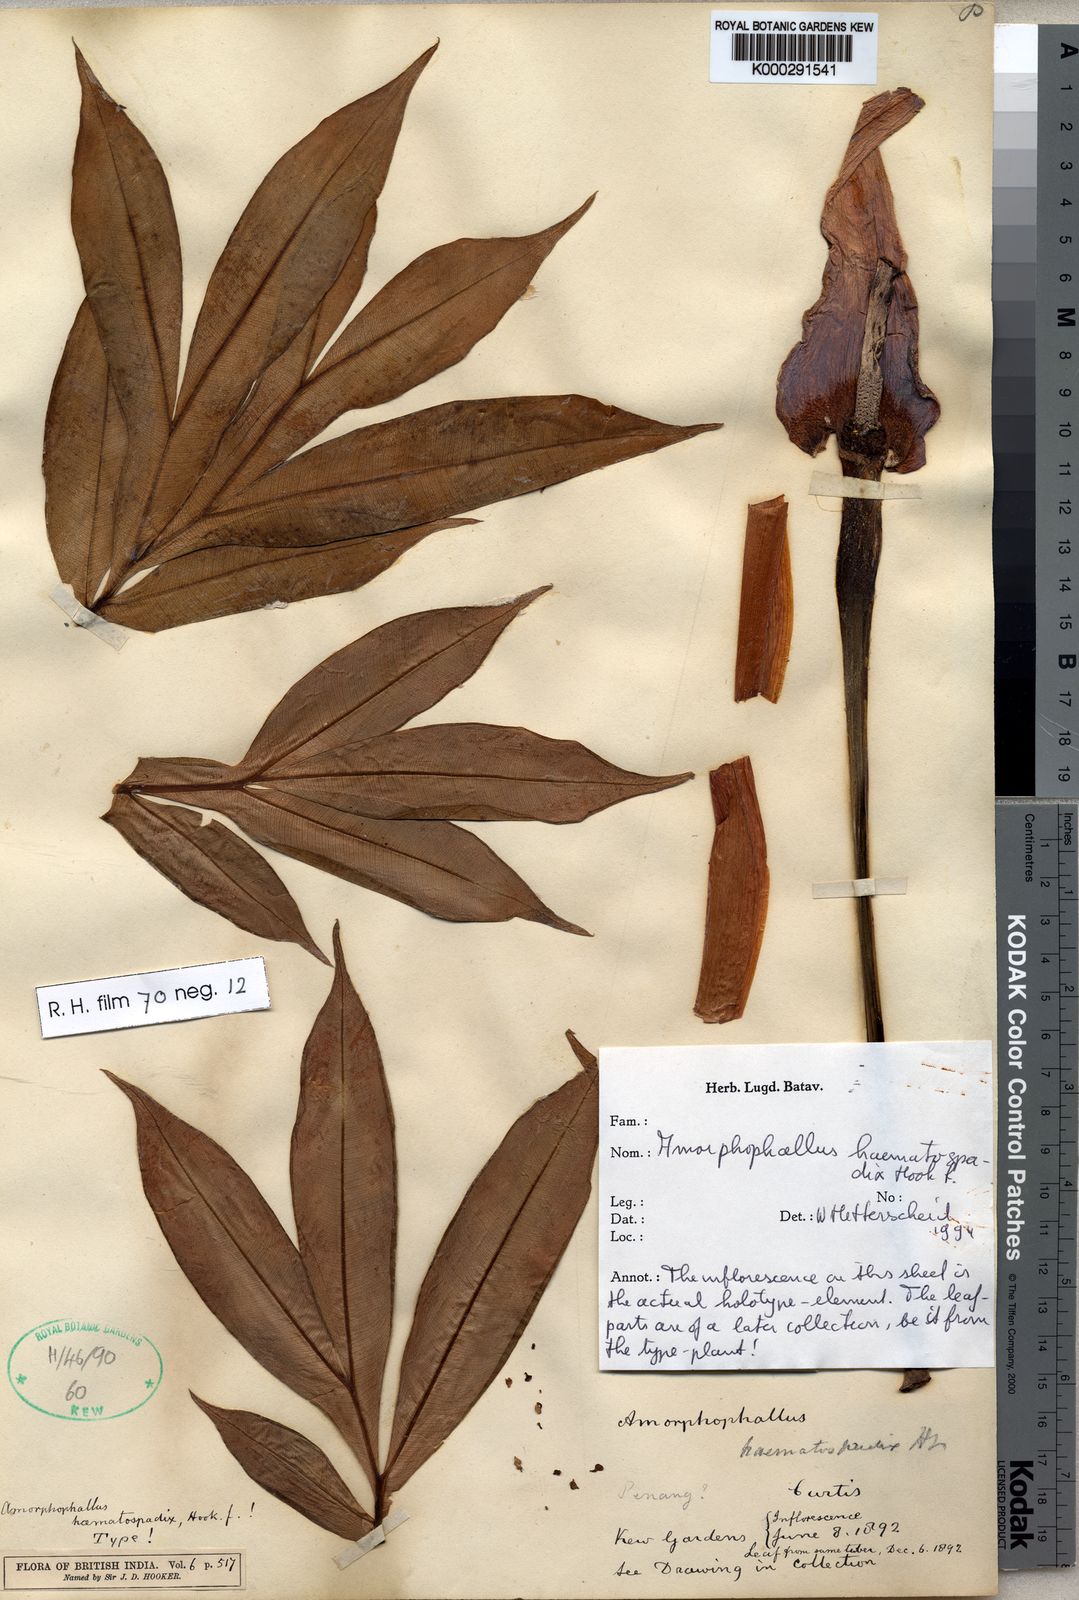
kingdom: Plantae
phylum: Tracheophyta
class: Liliopsida
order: Alismatales
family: Araceae
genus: Amorphophallus
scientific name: Amorphophallus haematospadix
